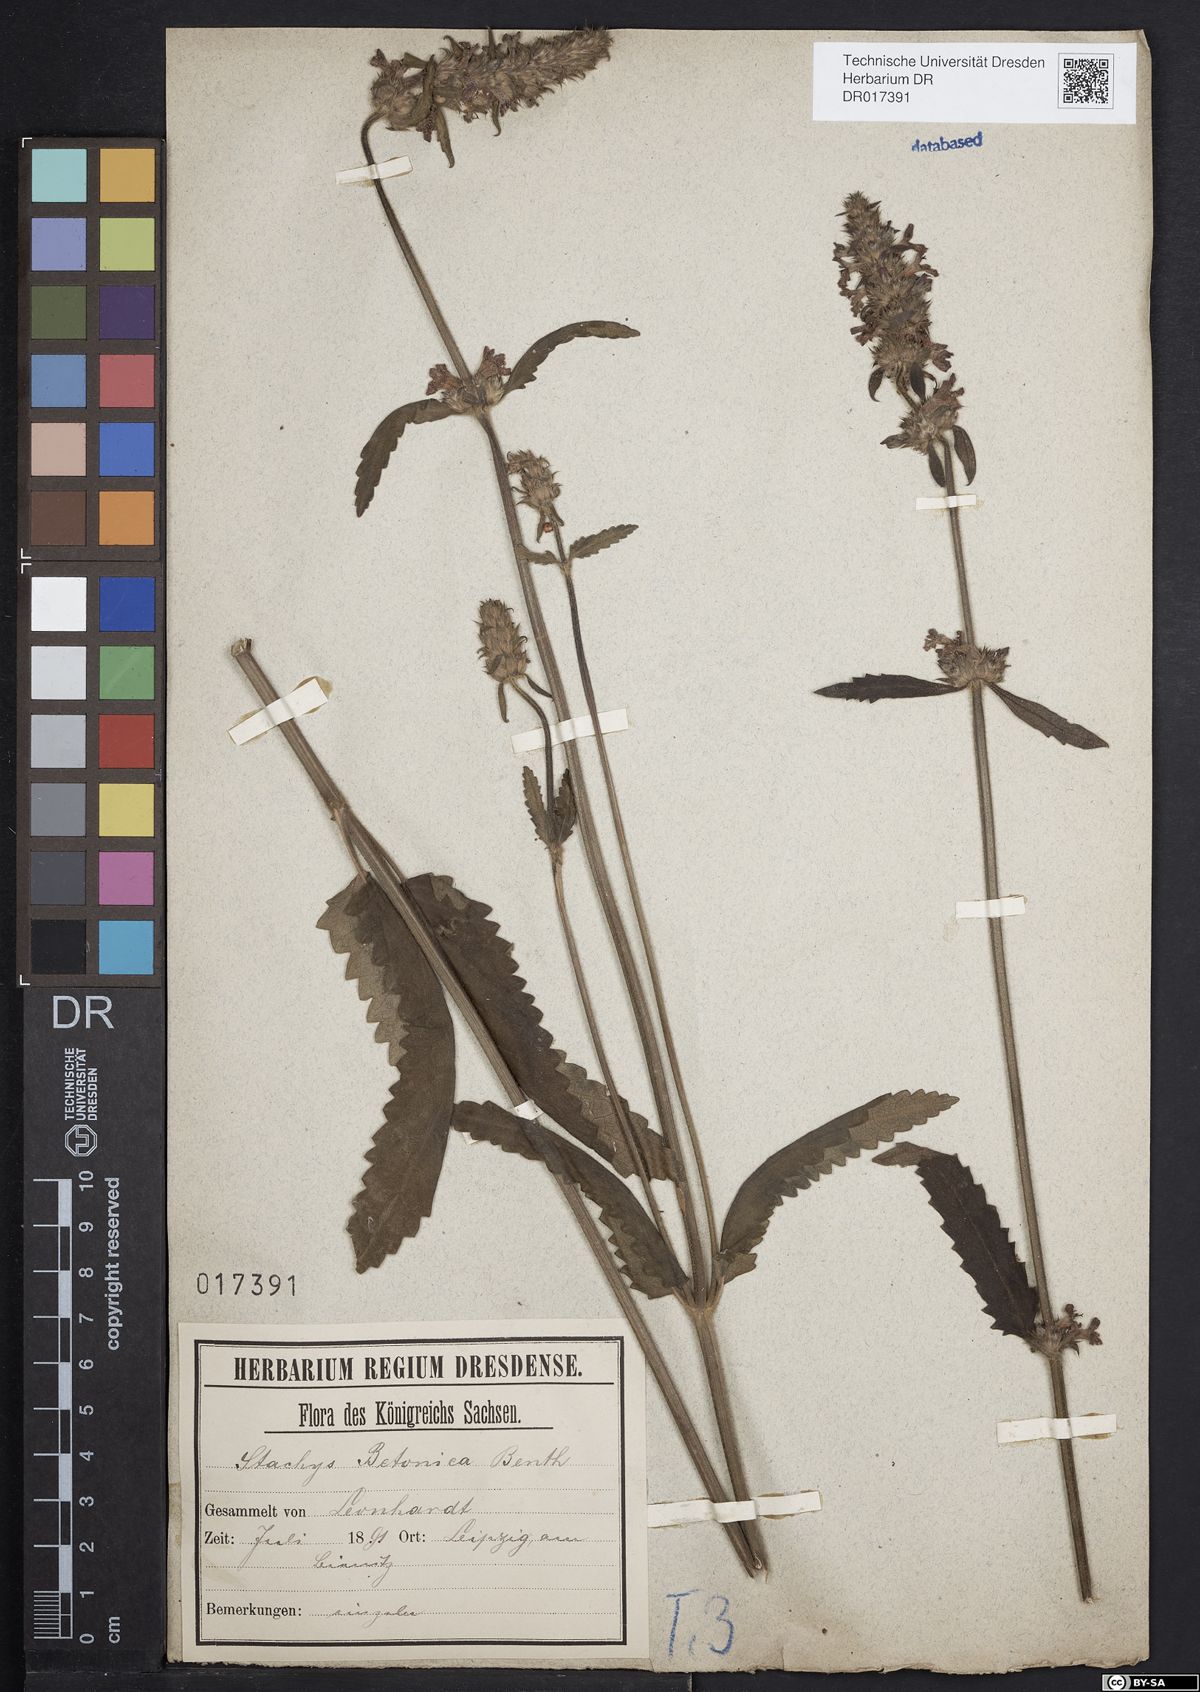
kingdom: Plantae
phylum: Tracheophyta
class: Magnoliopsida
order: Lamiales
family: Lamiaceae
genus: Betonica
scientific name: Betonica officinalis
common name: Bishop's-wort
